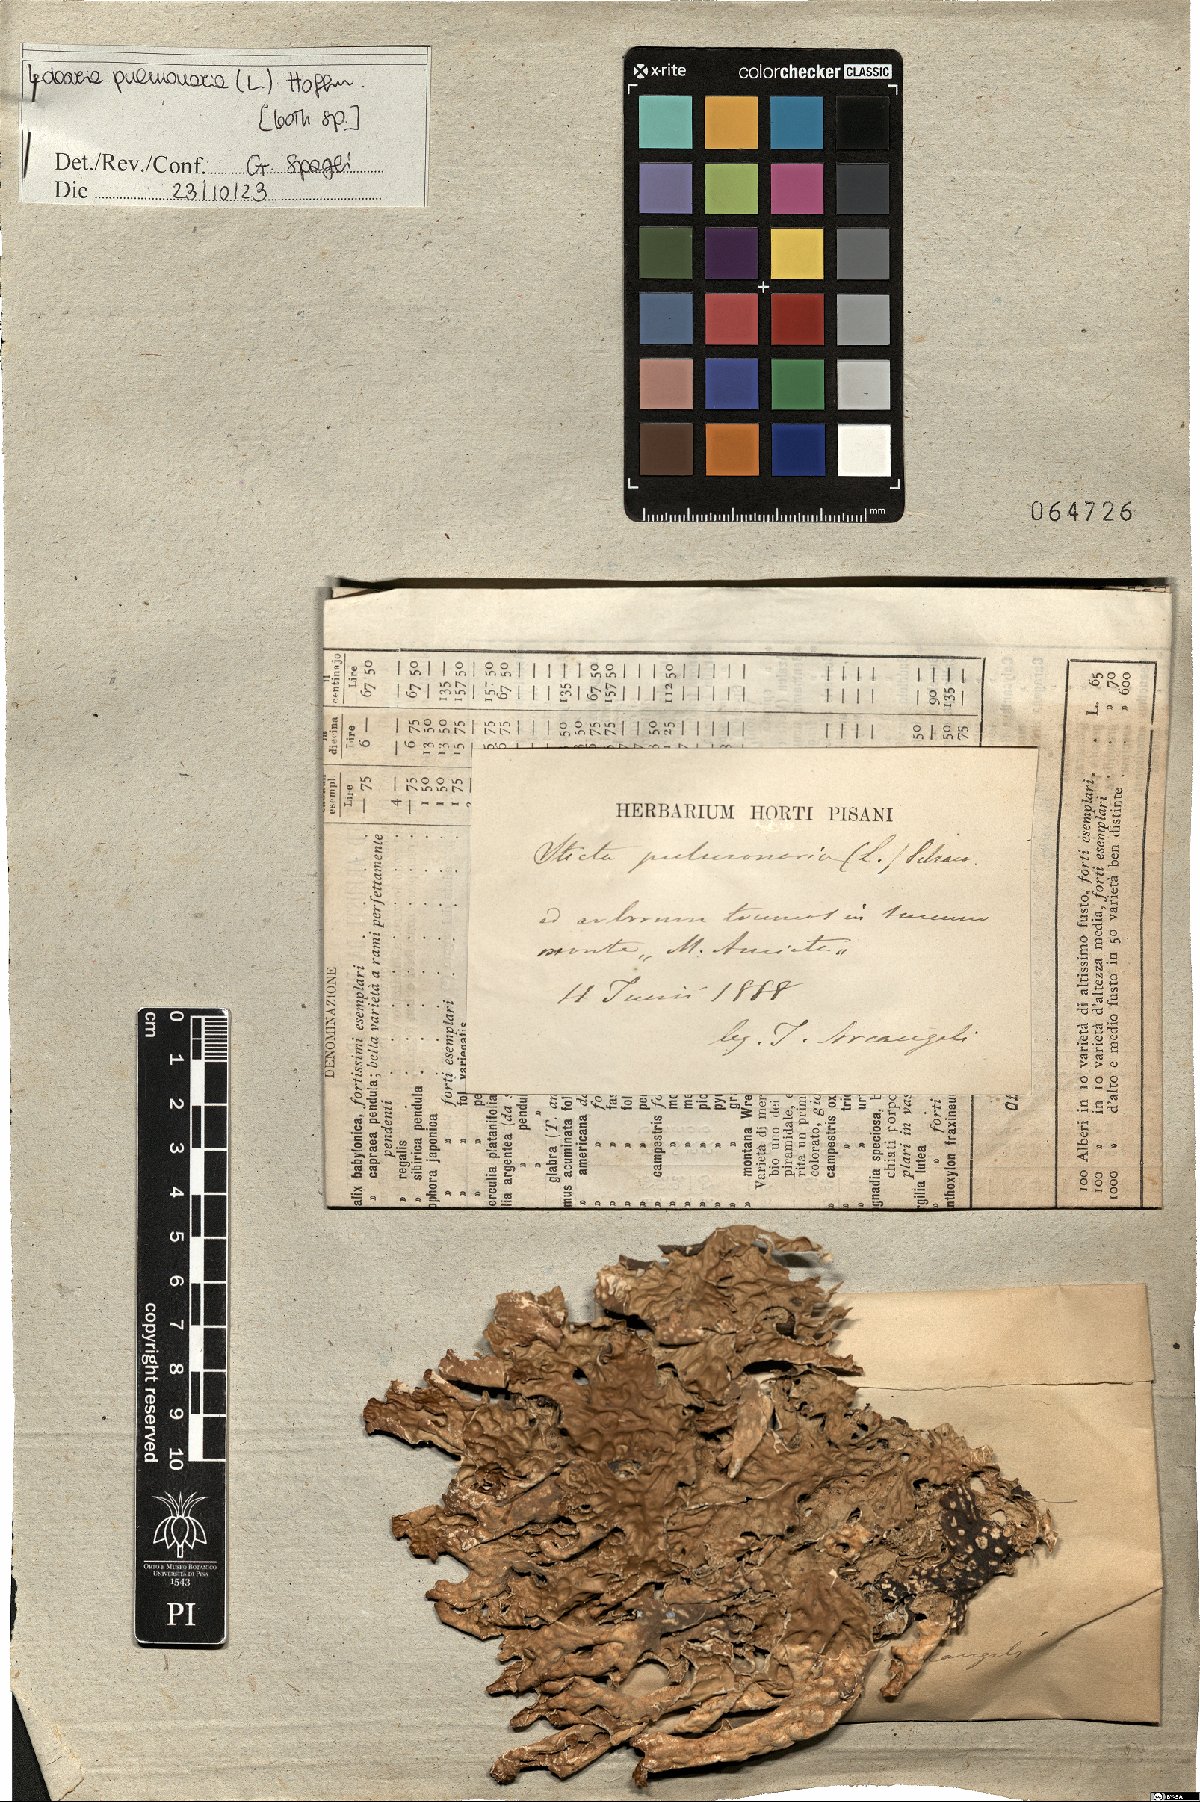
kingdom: Fungi
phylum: Ascomycota
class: Lecanoromycetes
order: Peltigerales
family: Lobariaceae
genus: Lobaria
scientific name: Lobaria pulmonaria
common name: Lungwort
